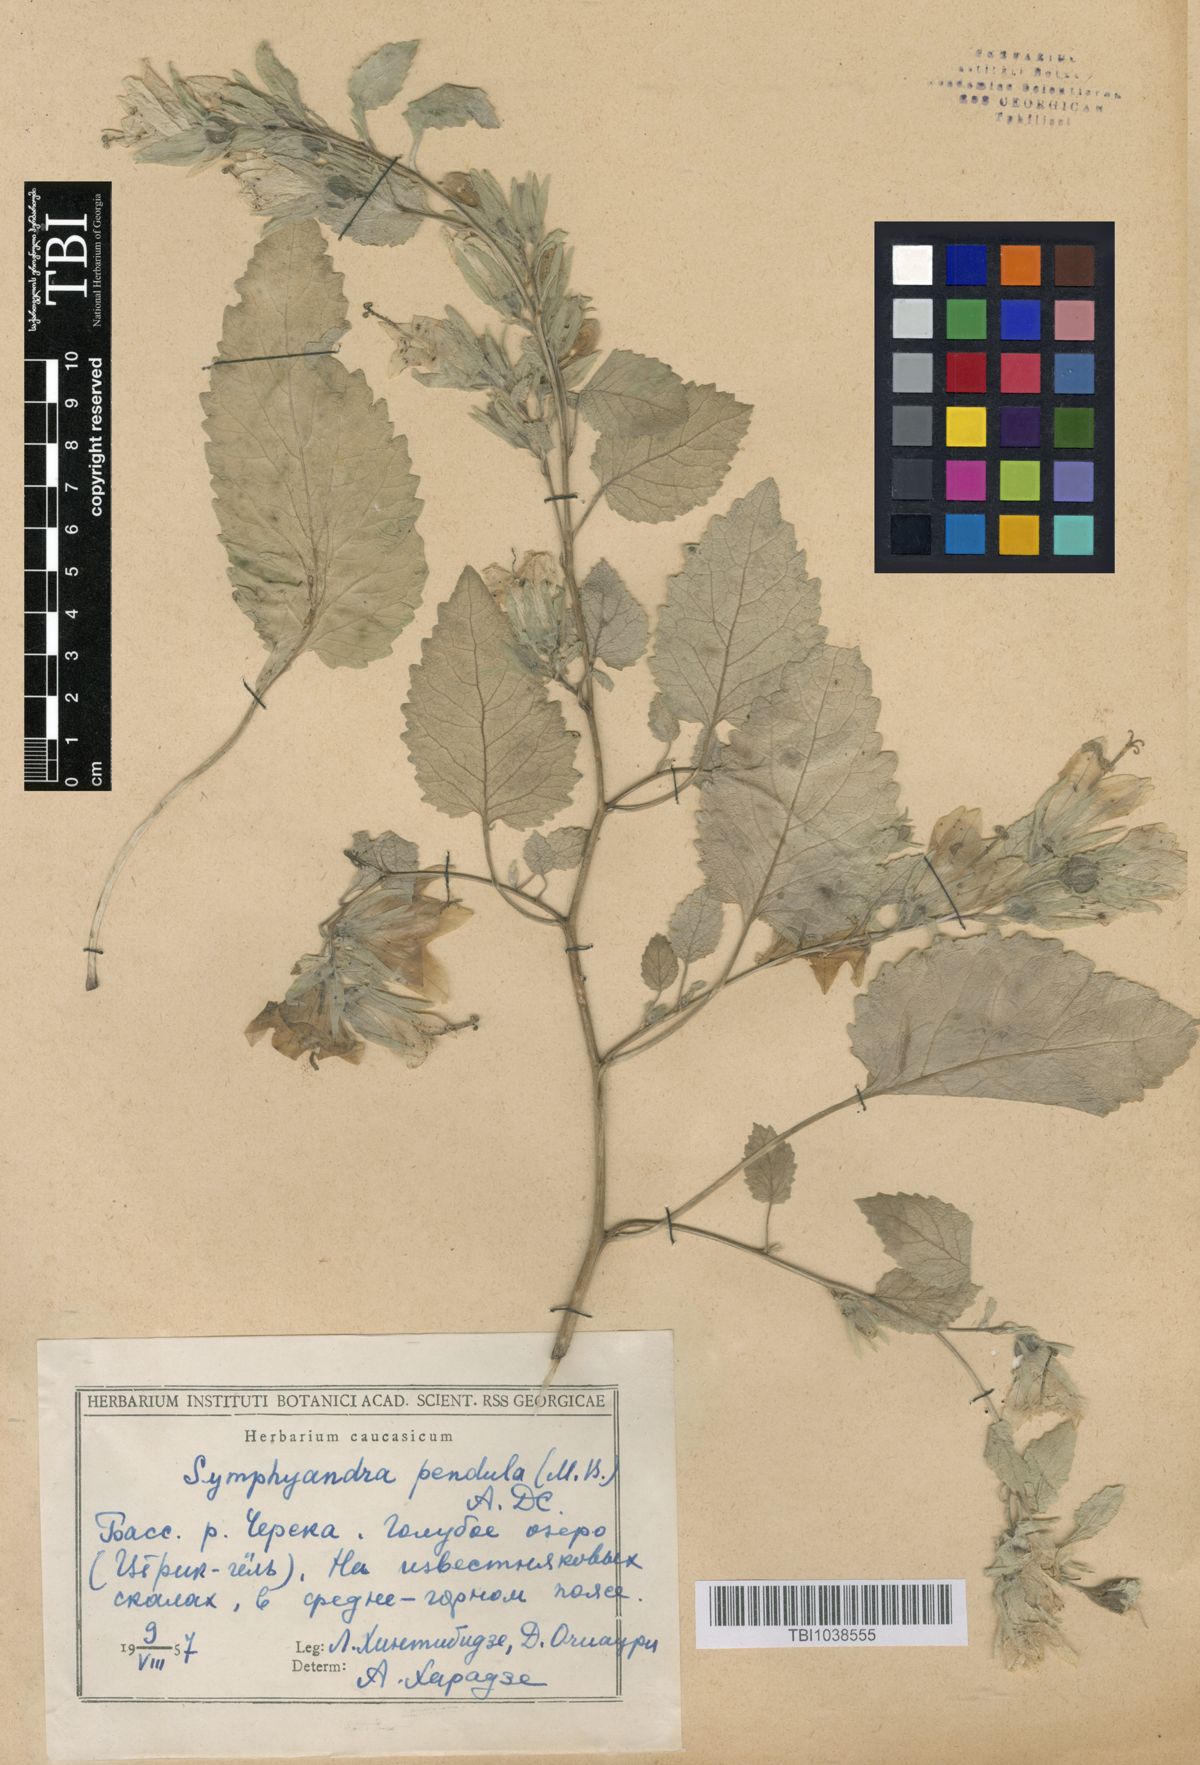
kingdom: Plantae
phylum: Tracheophyta
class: Magnoliopsida
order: Asterales
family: Campanulaceae
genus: Campanula
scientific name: Campanula pendula
